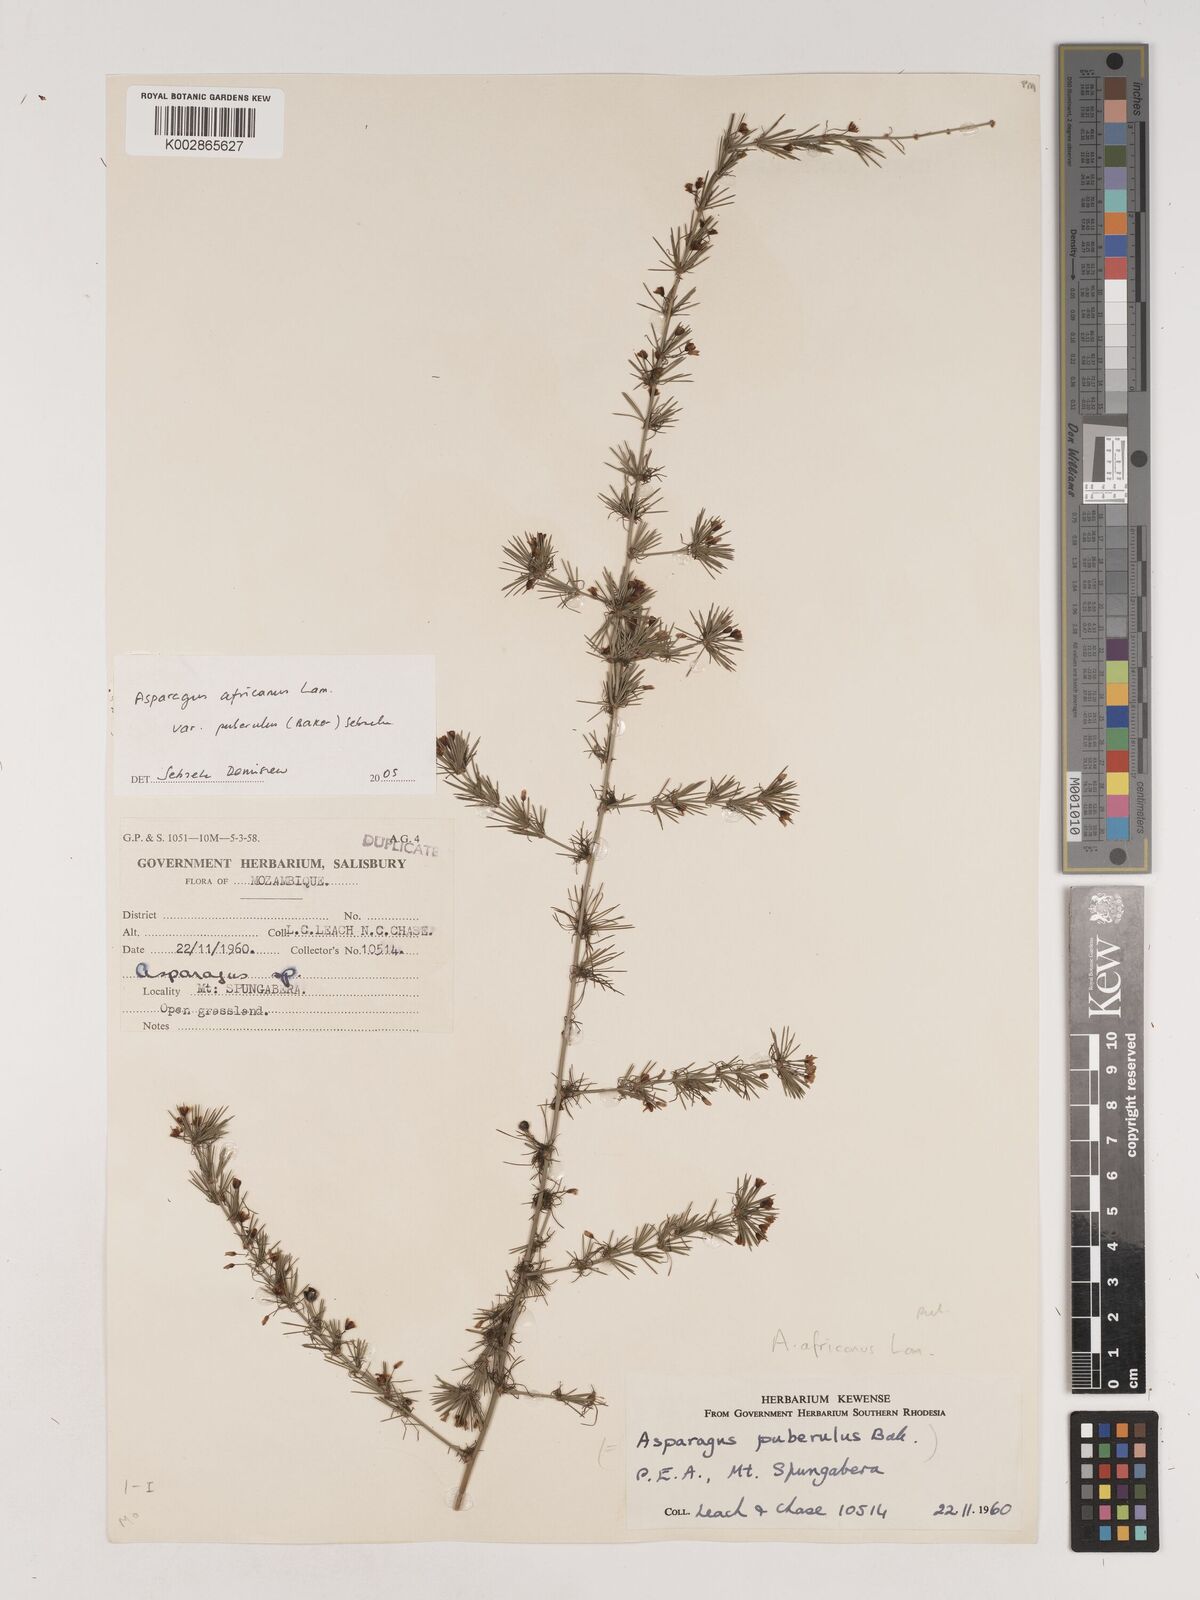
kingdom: Plantae
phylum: Tracheophyta
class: Liliopsida
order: Asparagales
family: Asparagaceae
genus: Asparagus
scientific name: Asparagus africanus
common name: Asparagus-fern
